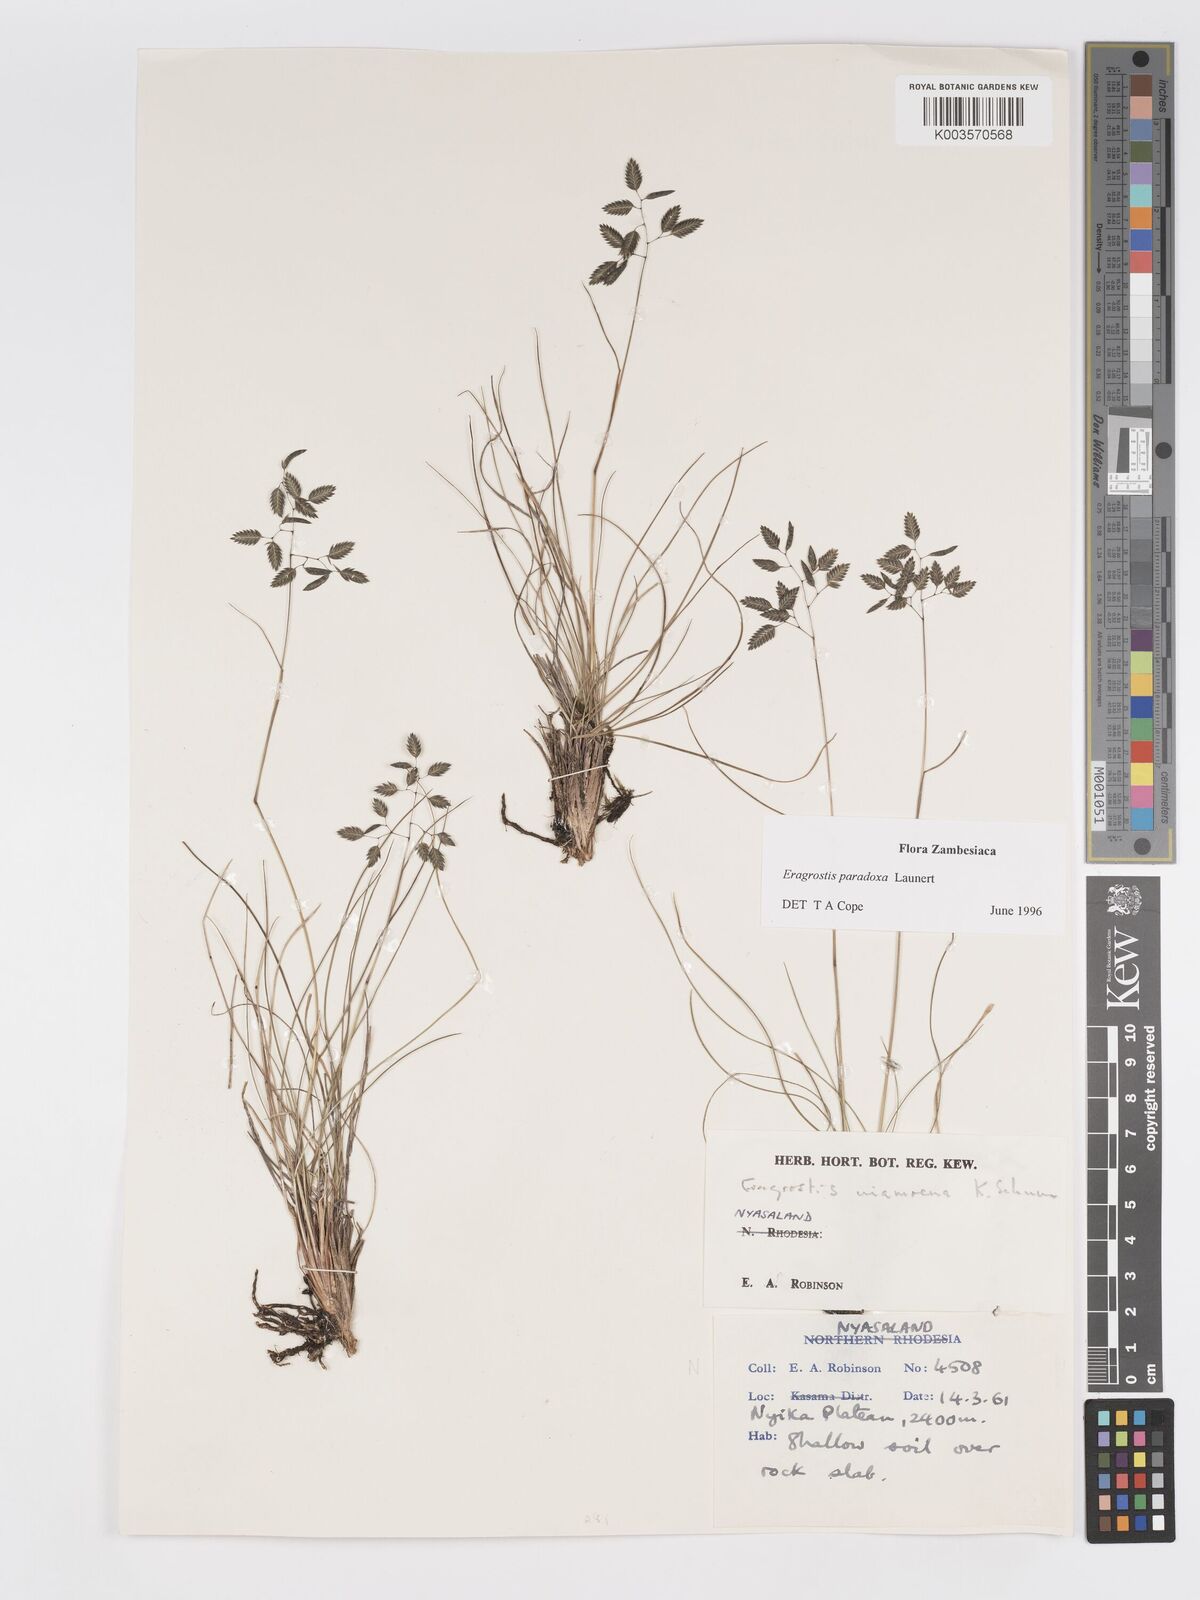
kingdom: Plantae
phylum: Tracheophyta
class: Liliopsida
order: Poales
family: Poaceae
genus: Eragrostis
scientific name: Eragrostis paradoxa
